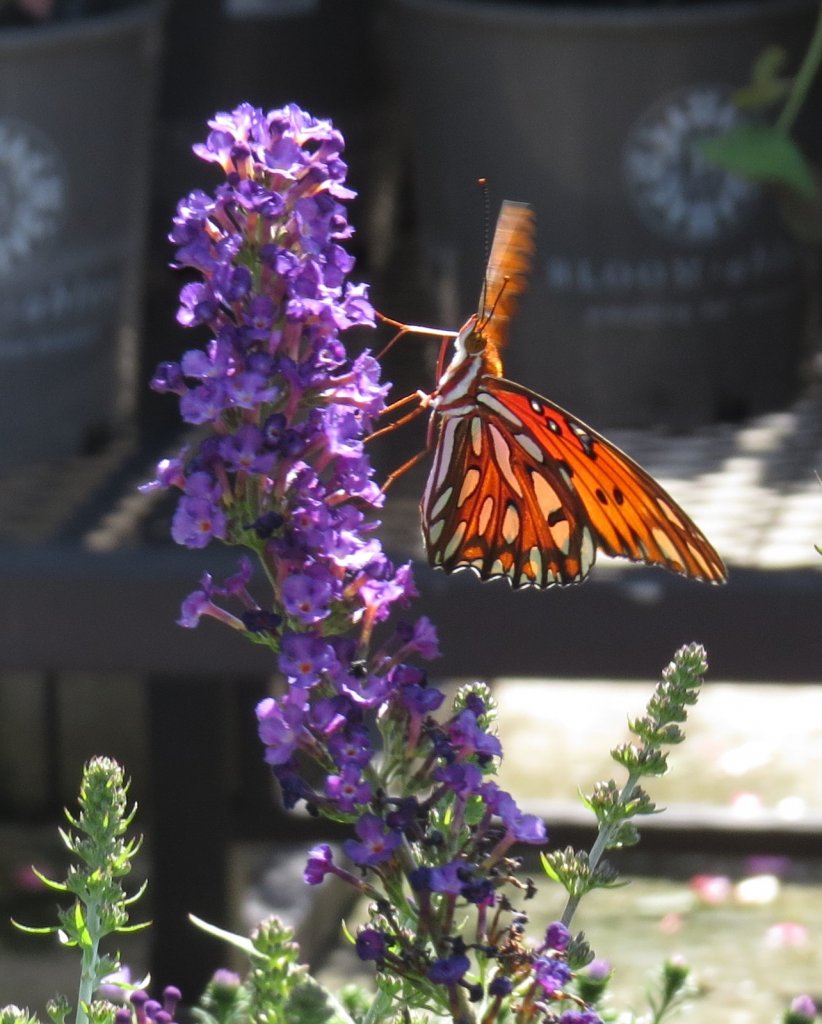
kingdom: Animalia
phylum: Arthropoda
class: Insecta
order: Lepidoptera
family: Nymphalidae
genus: Dione
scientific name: Dione vanillae
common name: Gulf Fritillary
